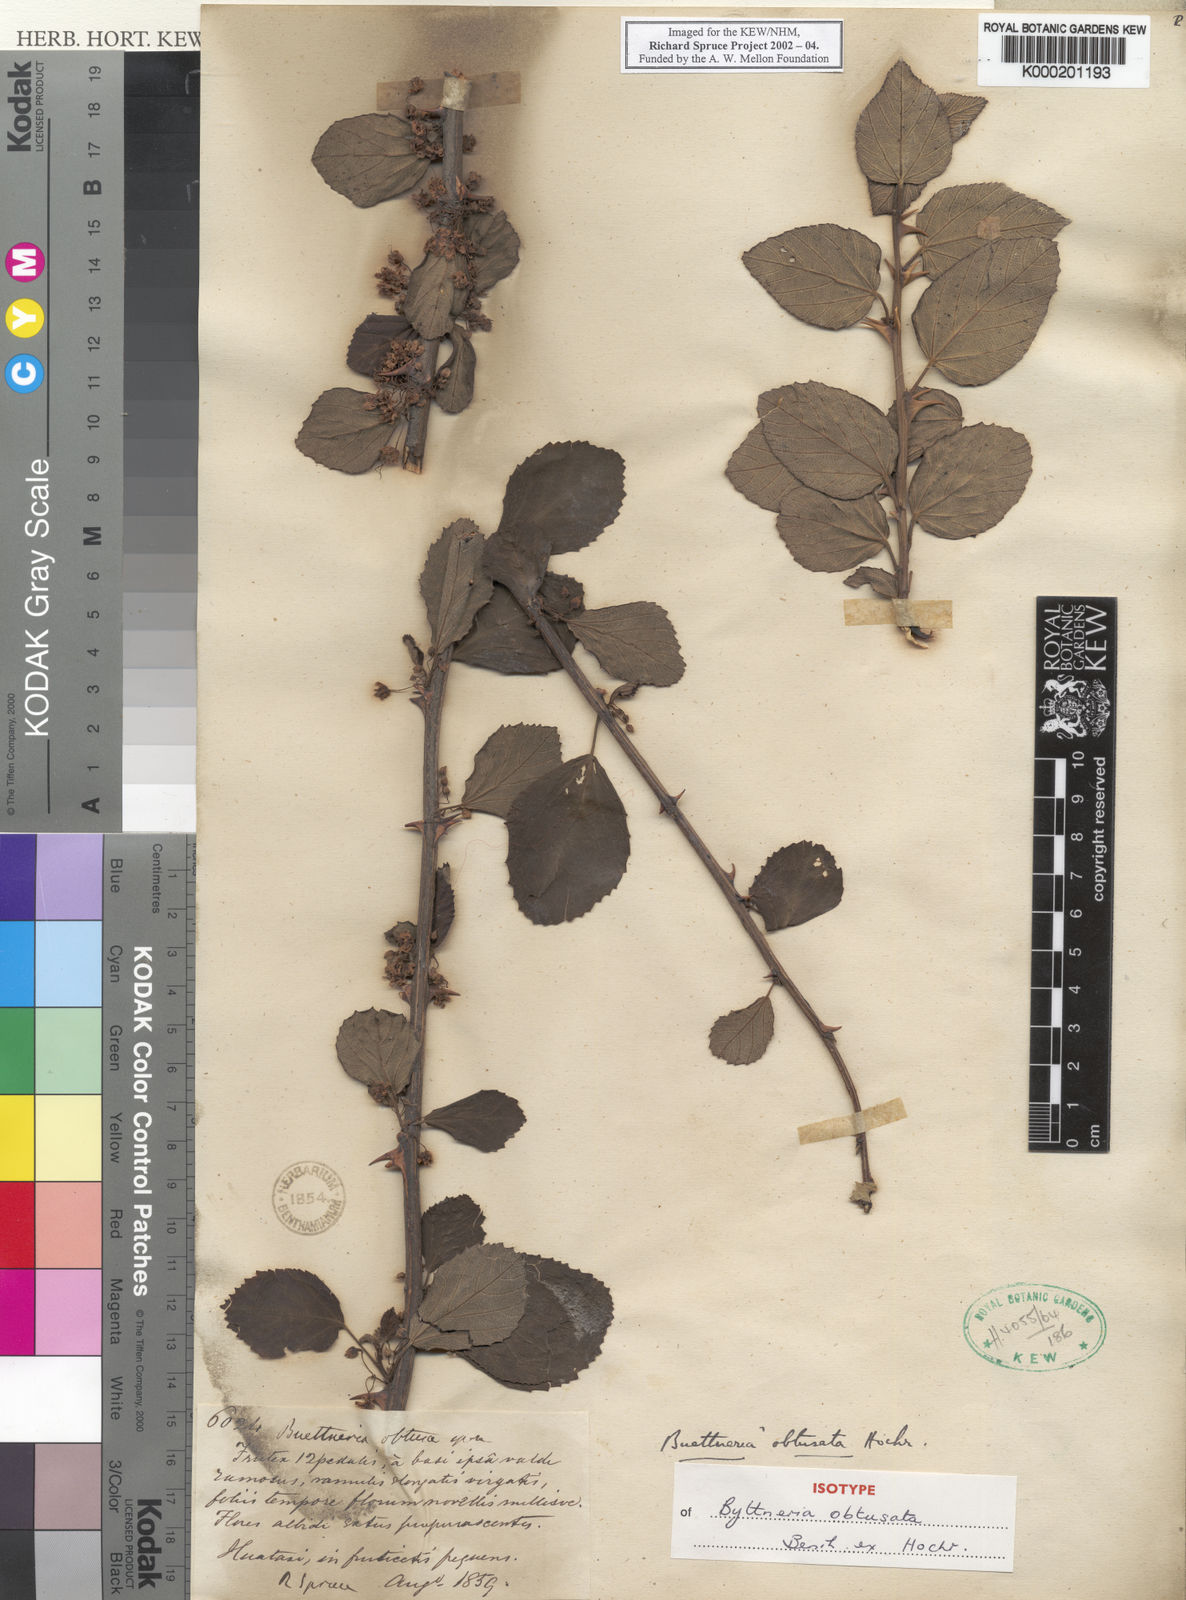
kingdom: Plantae
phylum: Tracheophyta
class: Magnoliopsida
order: Malvales
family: Malvaceae
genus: Byttneria
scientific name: Byttneria geminifolia
